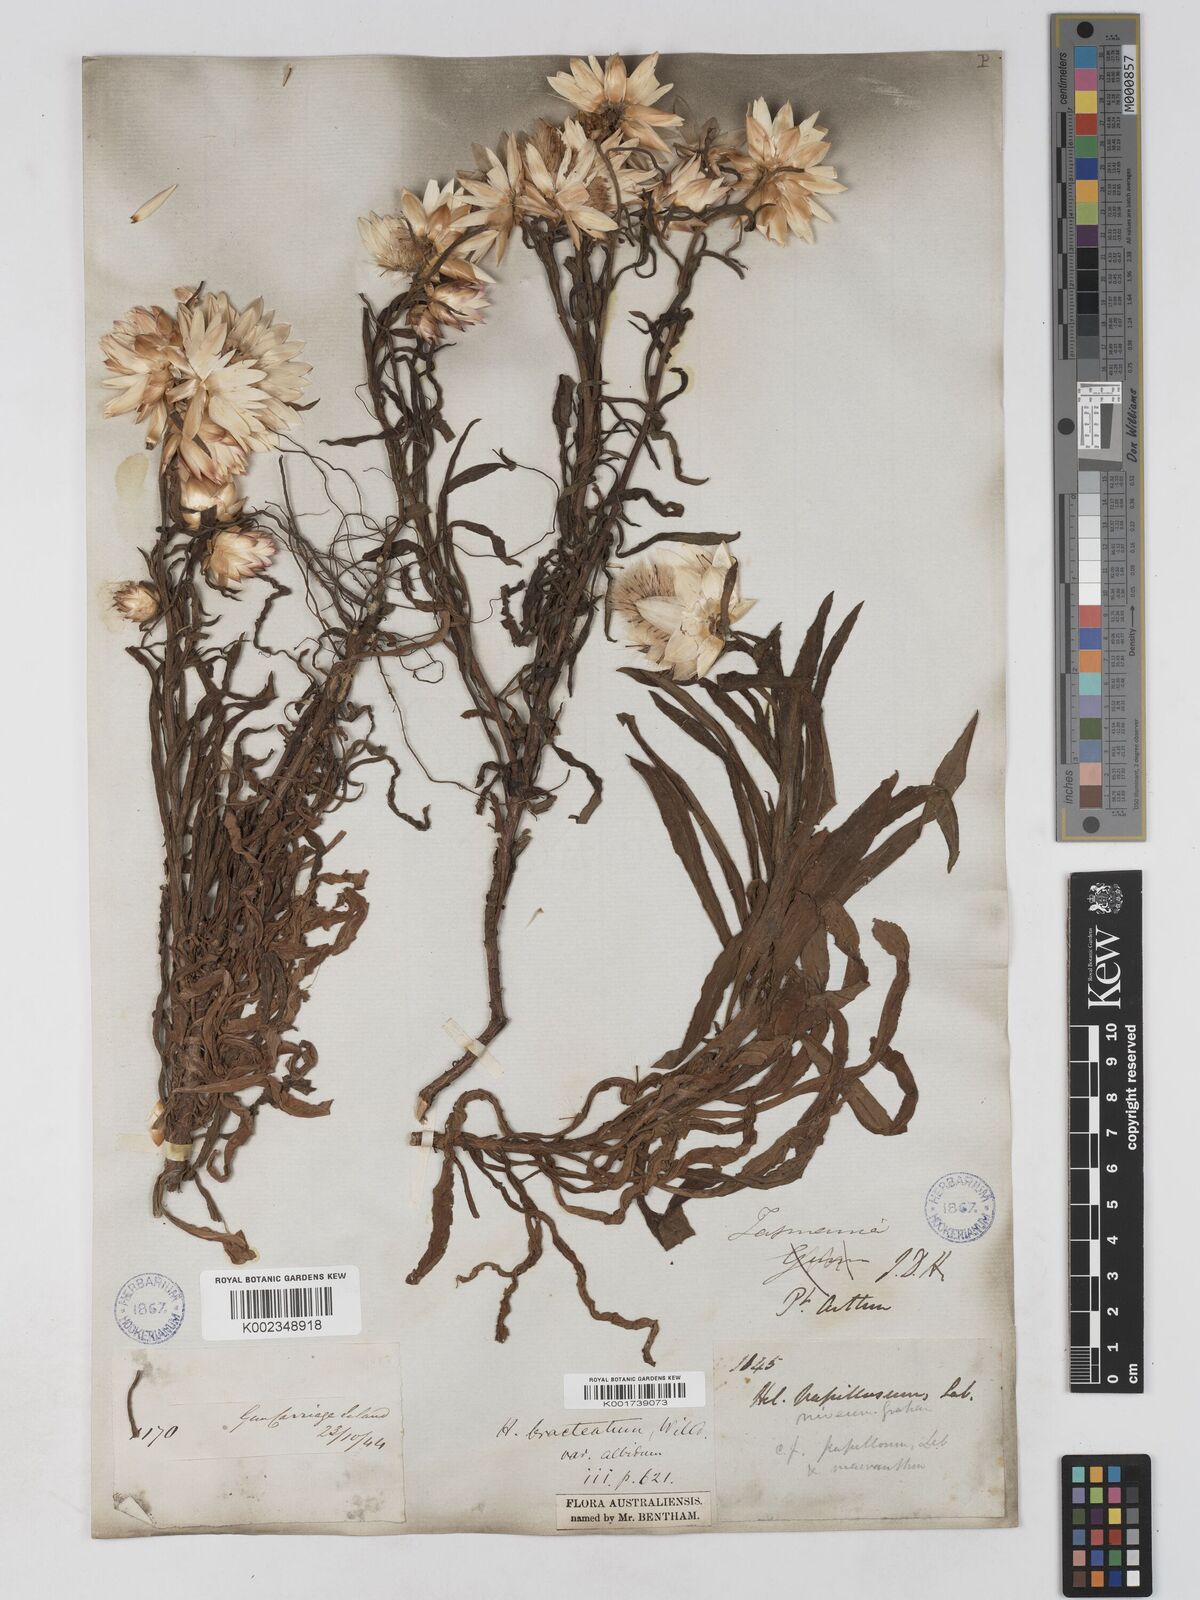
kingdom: Plantae
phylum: Tracheophyta
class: Magnoliopsida
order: Asterales
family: Asteraceae
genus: Xerochrysum
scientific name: Xerochrysum papillosum
